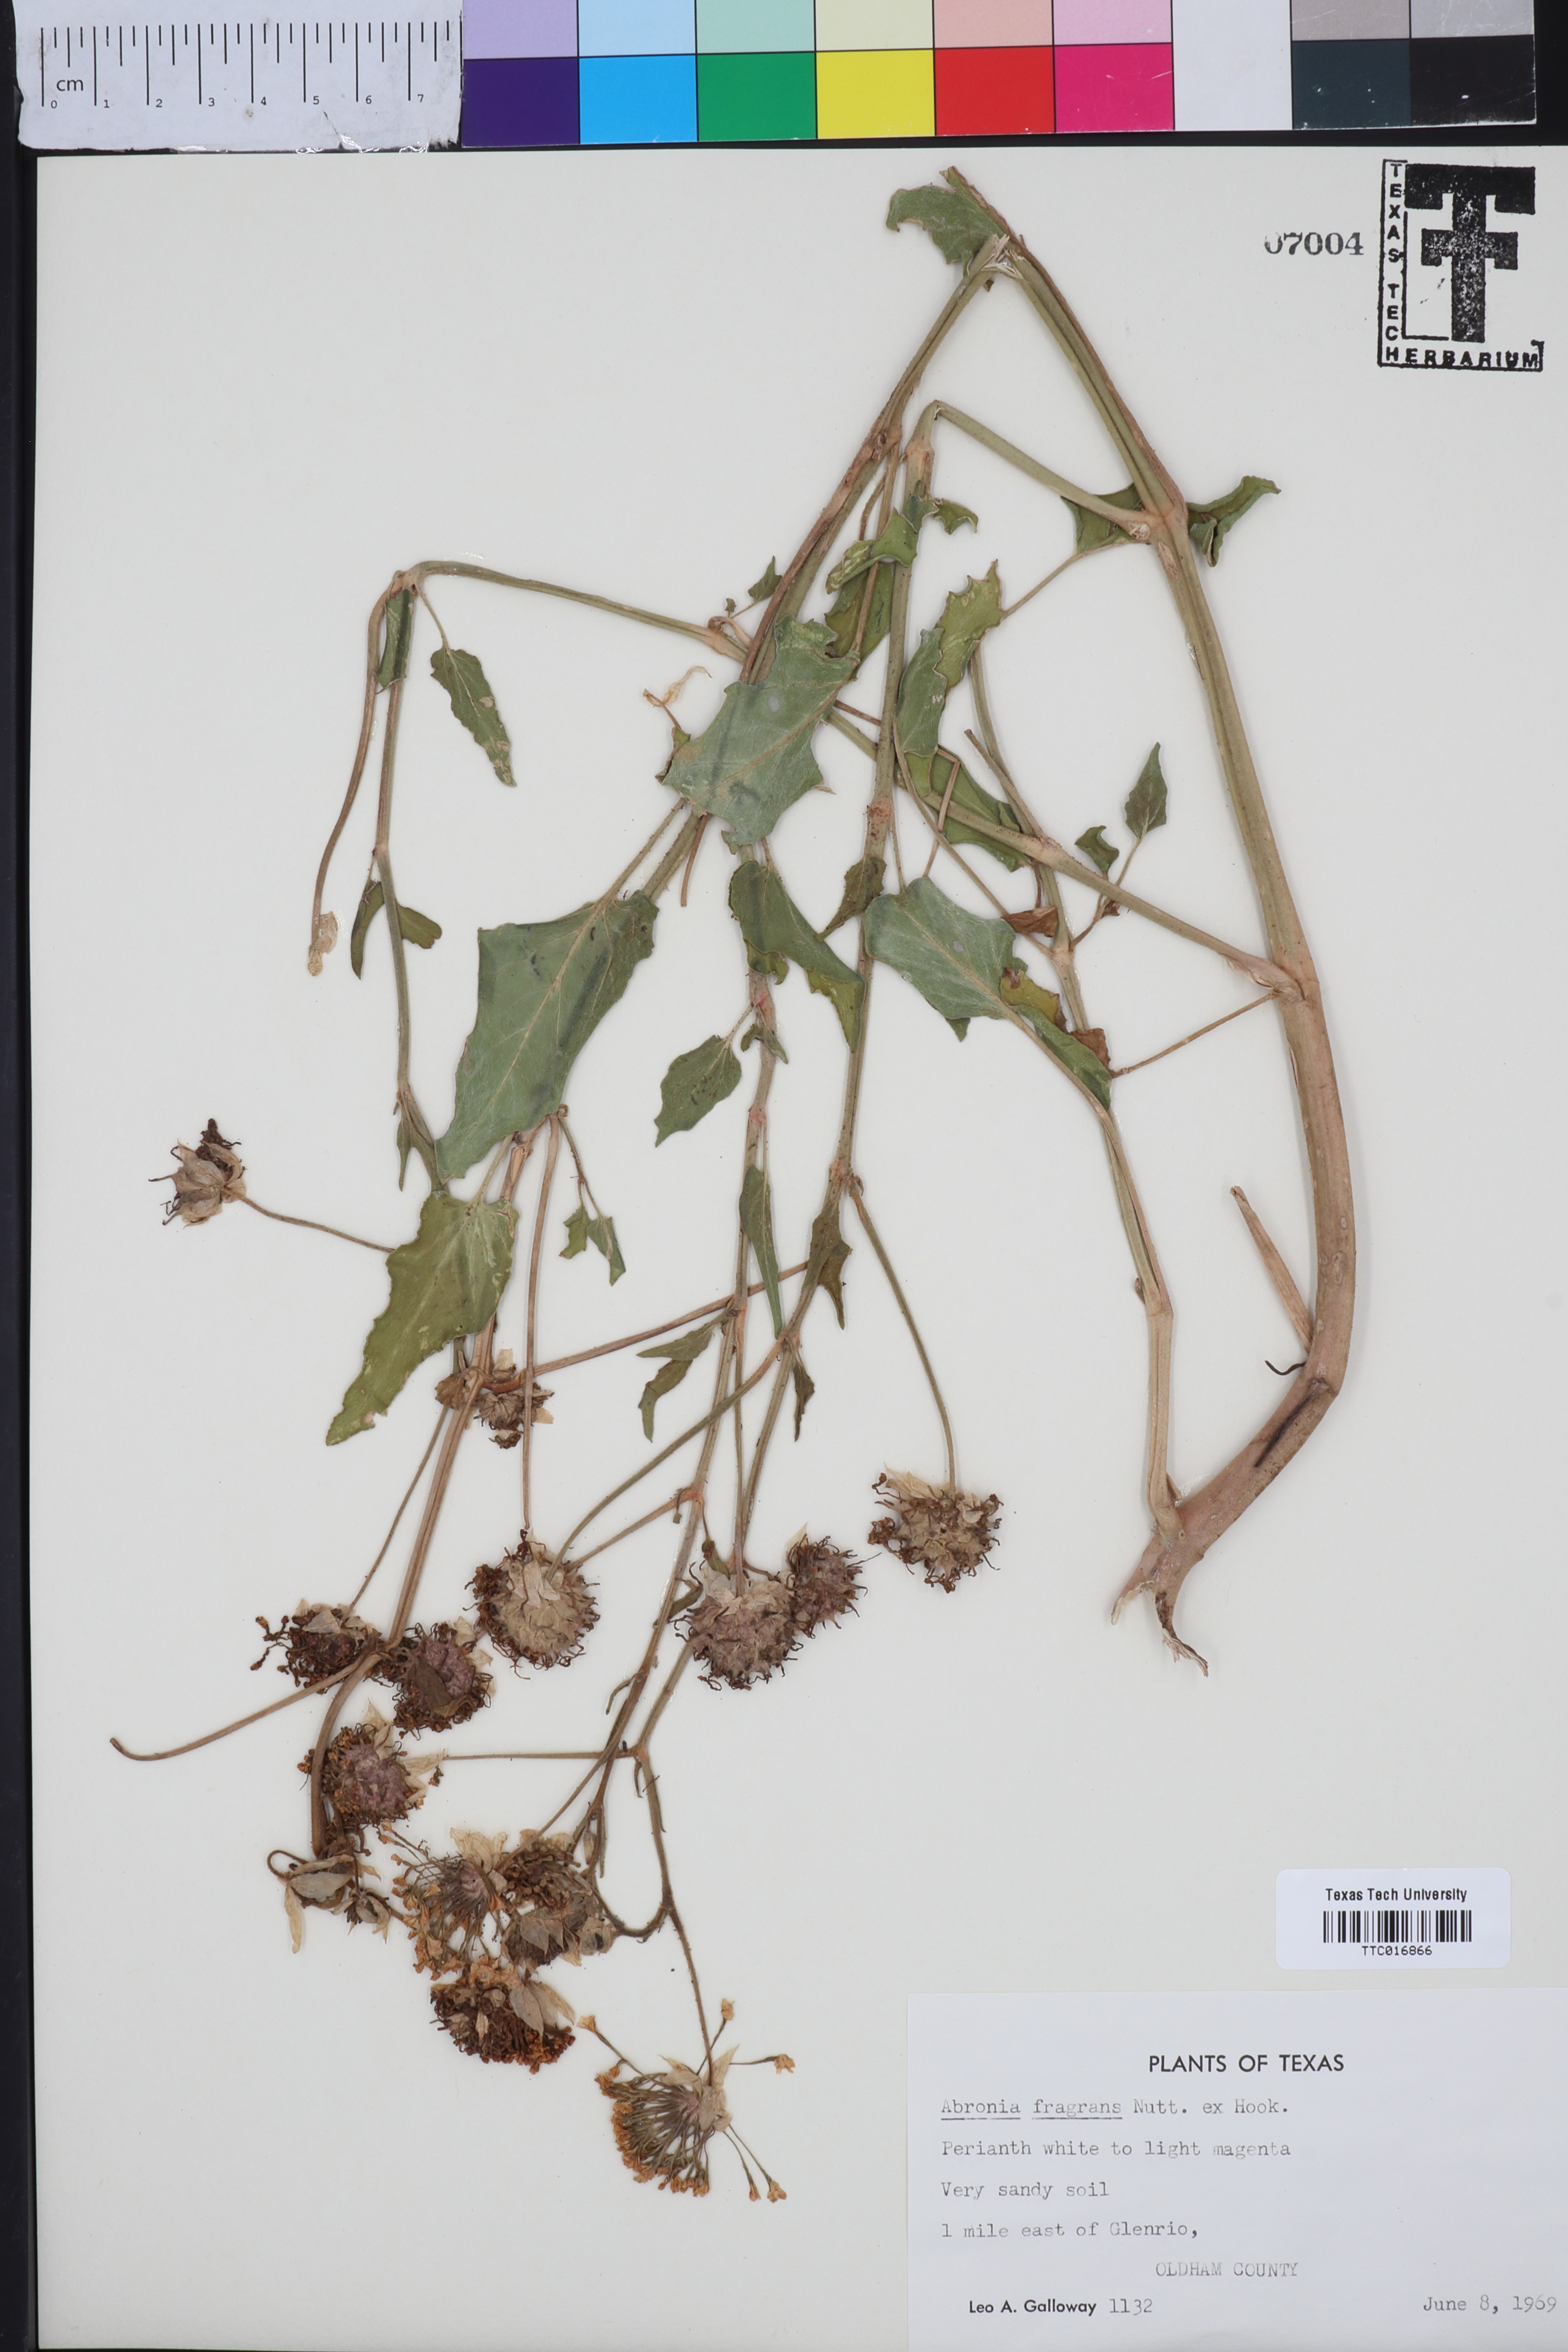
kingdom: Plantae
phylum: Tracheophyta
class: Magnoliopsida
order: Caryophyllales
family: Nyctaginaceae
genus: Abronia
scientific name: Abronia fragrans
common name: Fragrant sand-verbena
